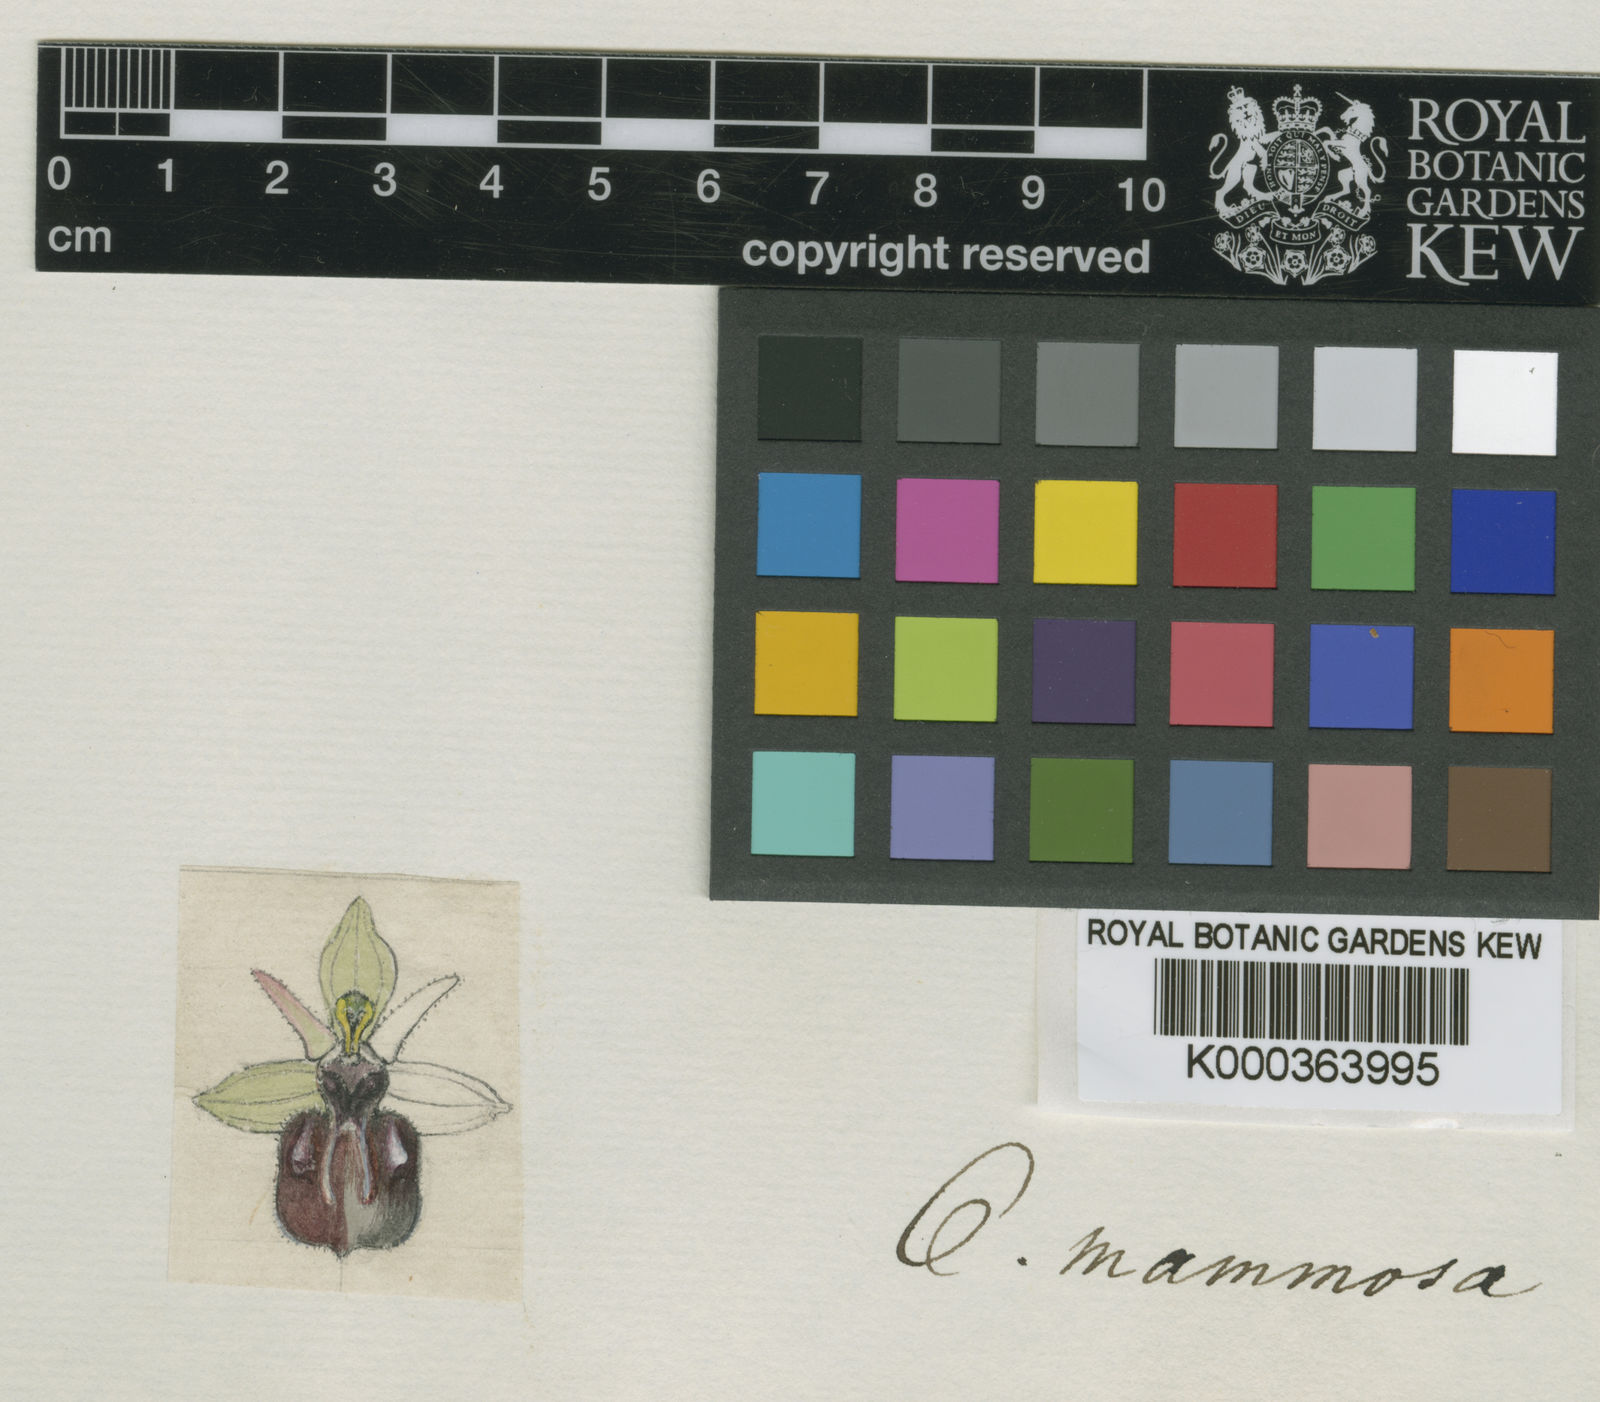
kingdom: Plantae
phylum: Tracheophyta
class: Liliopsida
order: Asparagales
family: Orchidaceae
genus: Ophrys
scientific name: Ophrys sphegodes
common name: Early spider-orchid
